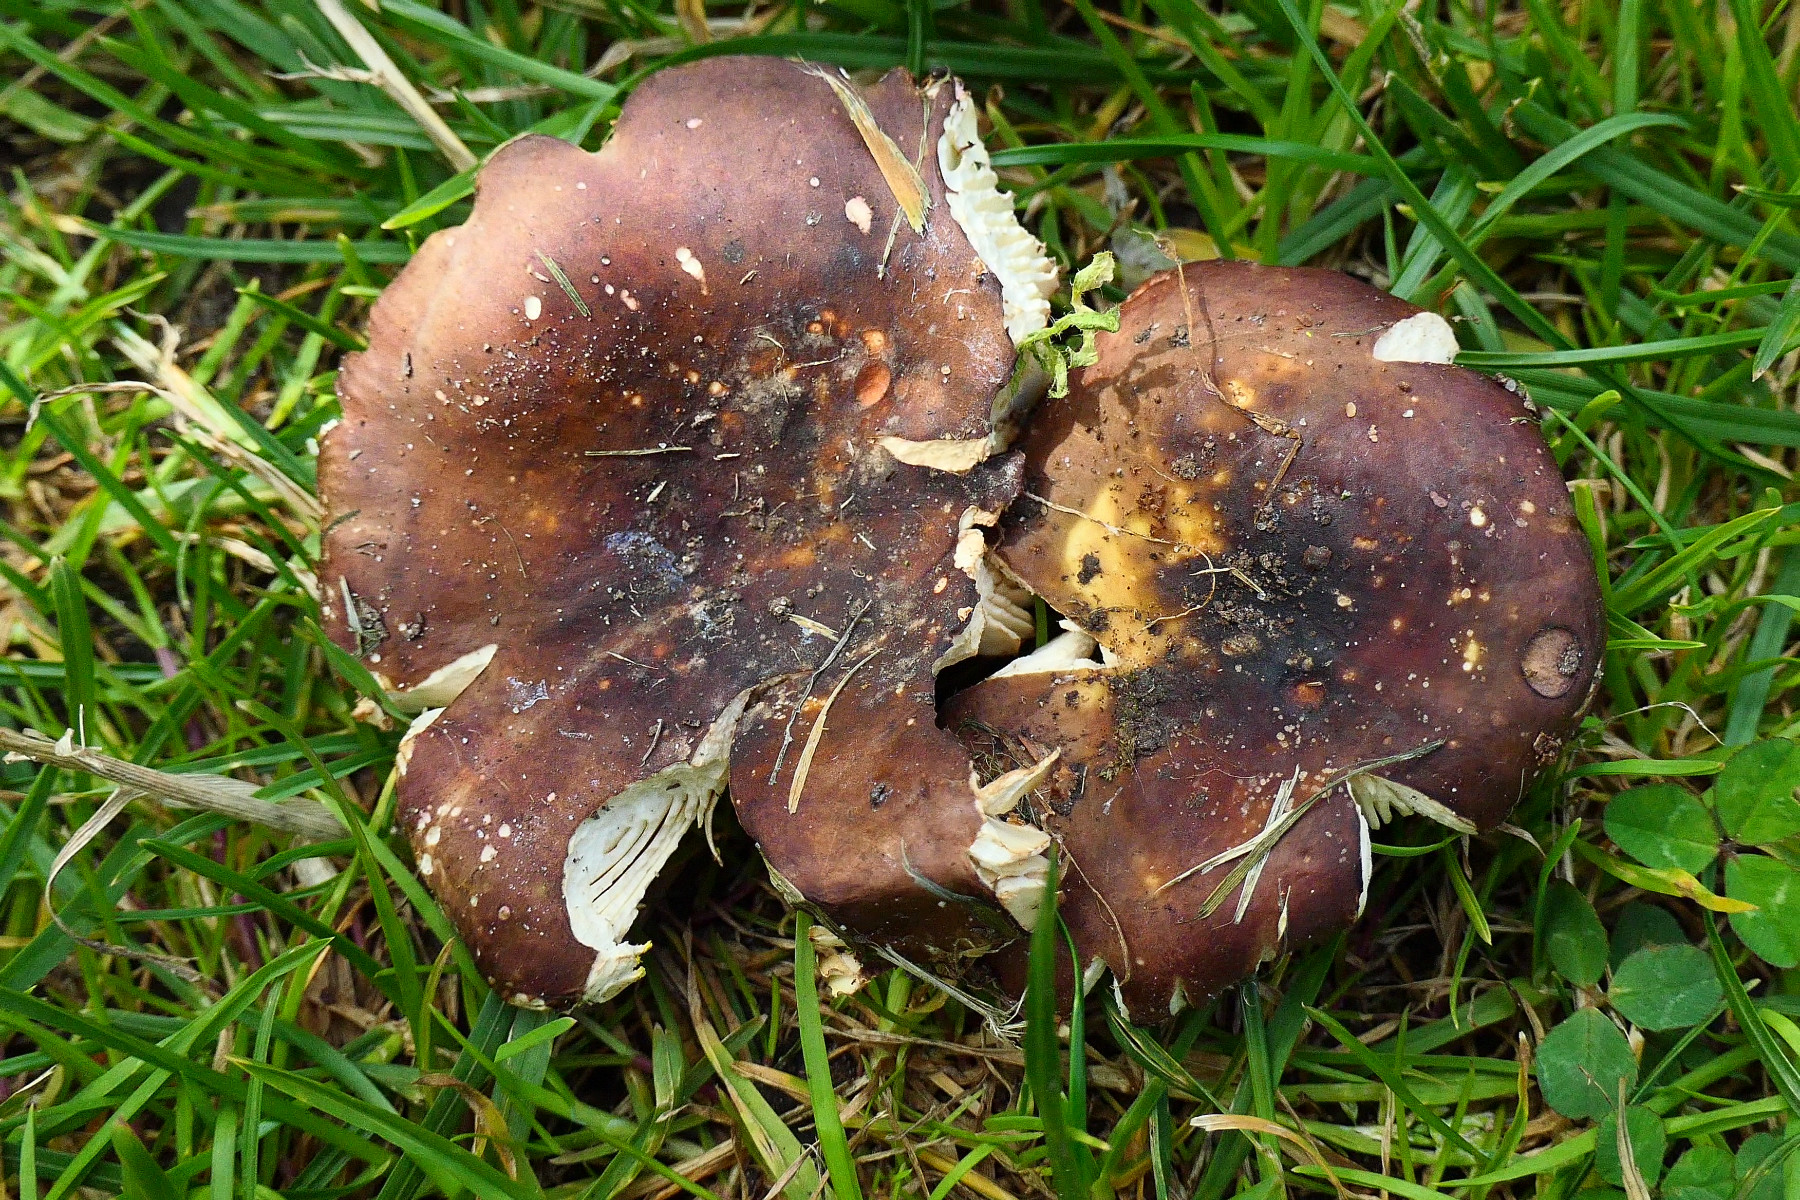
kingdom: Fungi
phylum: Basidiomycota
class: Agaricomycetes
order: Russulales
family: Russulaceae
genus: Russula
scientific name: Russula graveolens
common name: bugtet skørhat
